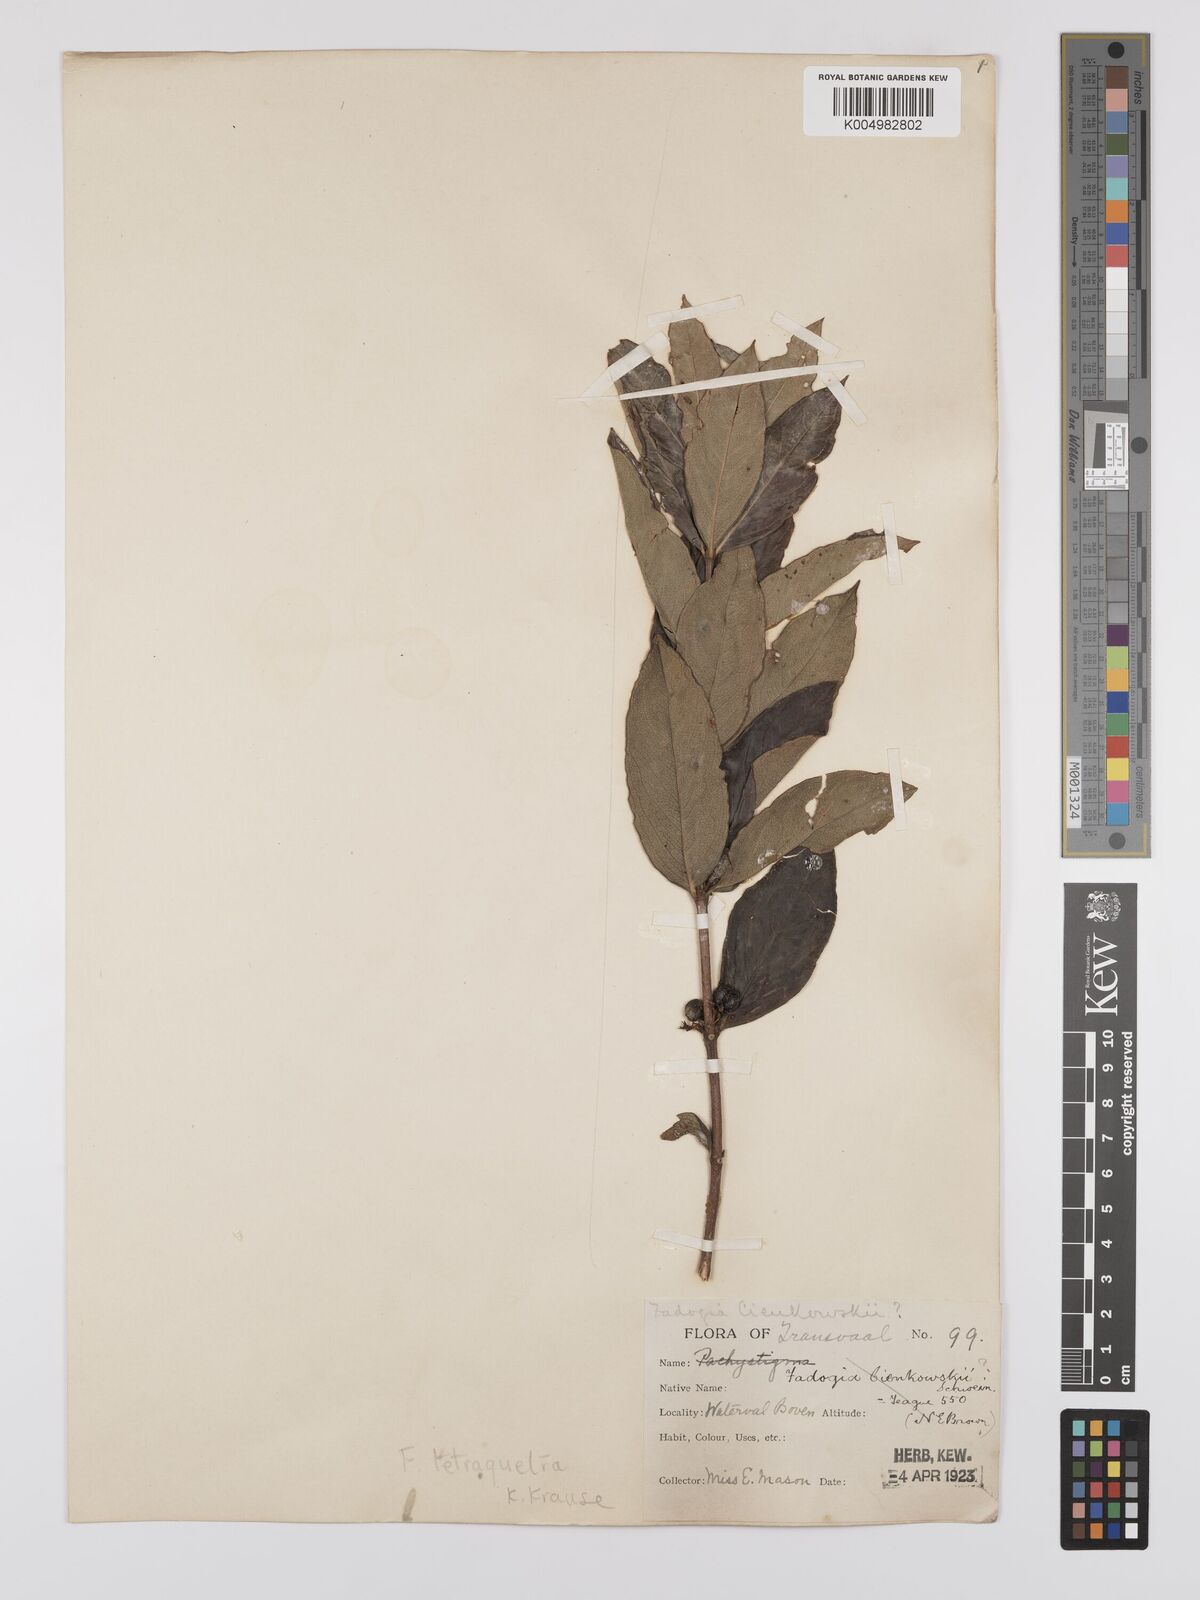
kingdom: Plantae
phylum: Tracheophyta
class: Magnoliopsida
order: Gentianales
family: Rubiaceae
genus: Fadogia
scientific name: Fadogia tetraquetra
